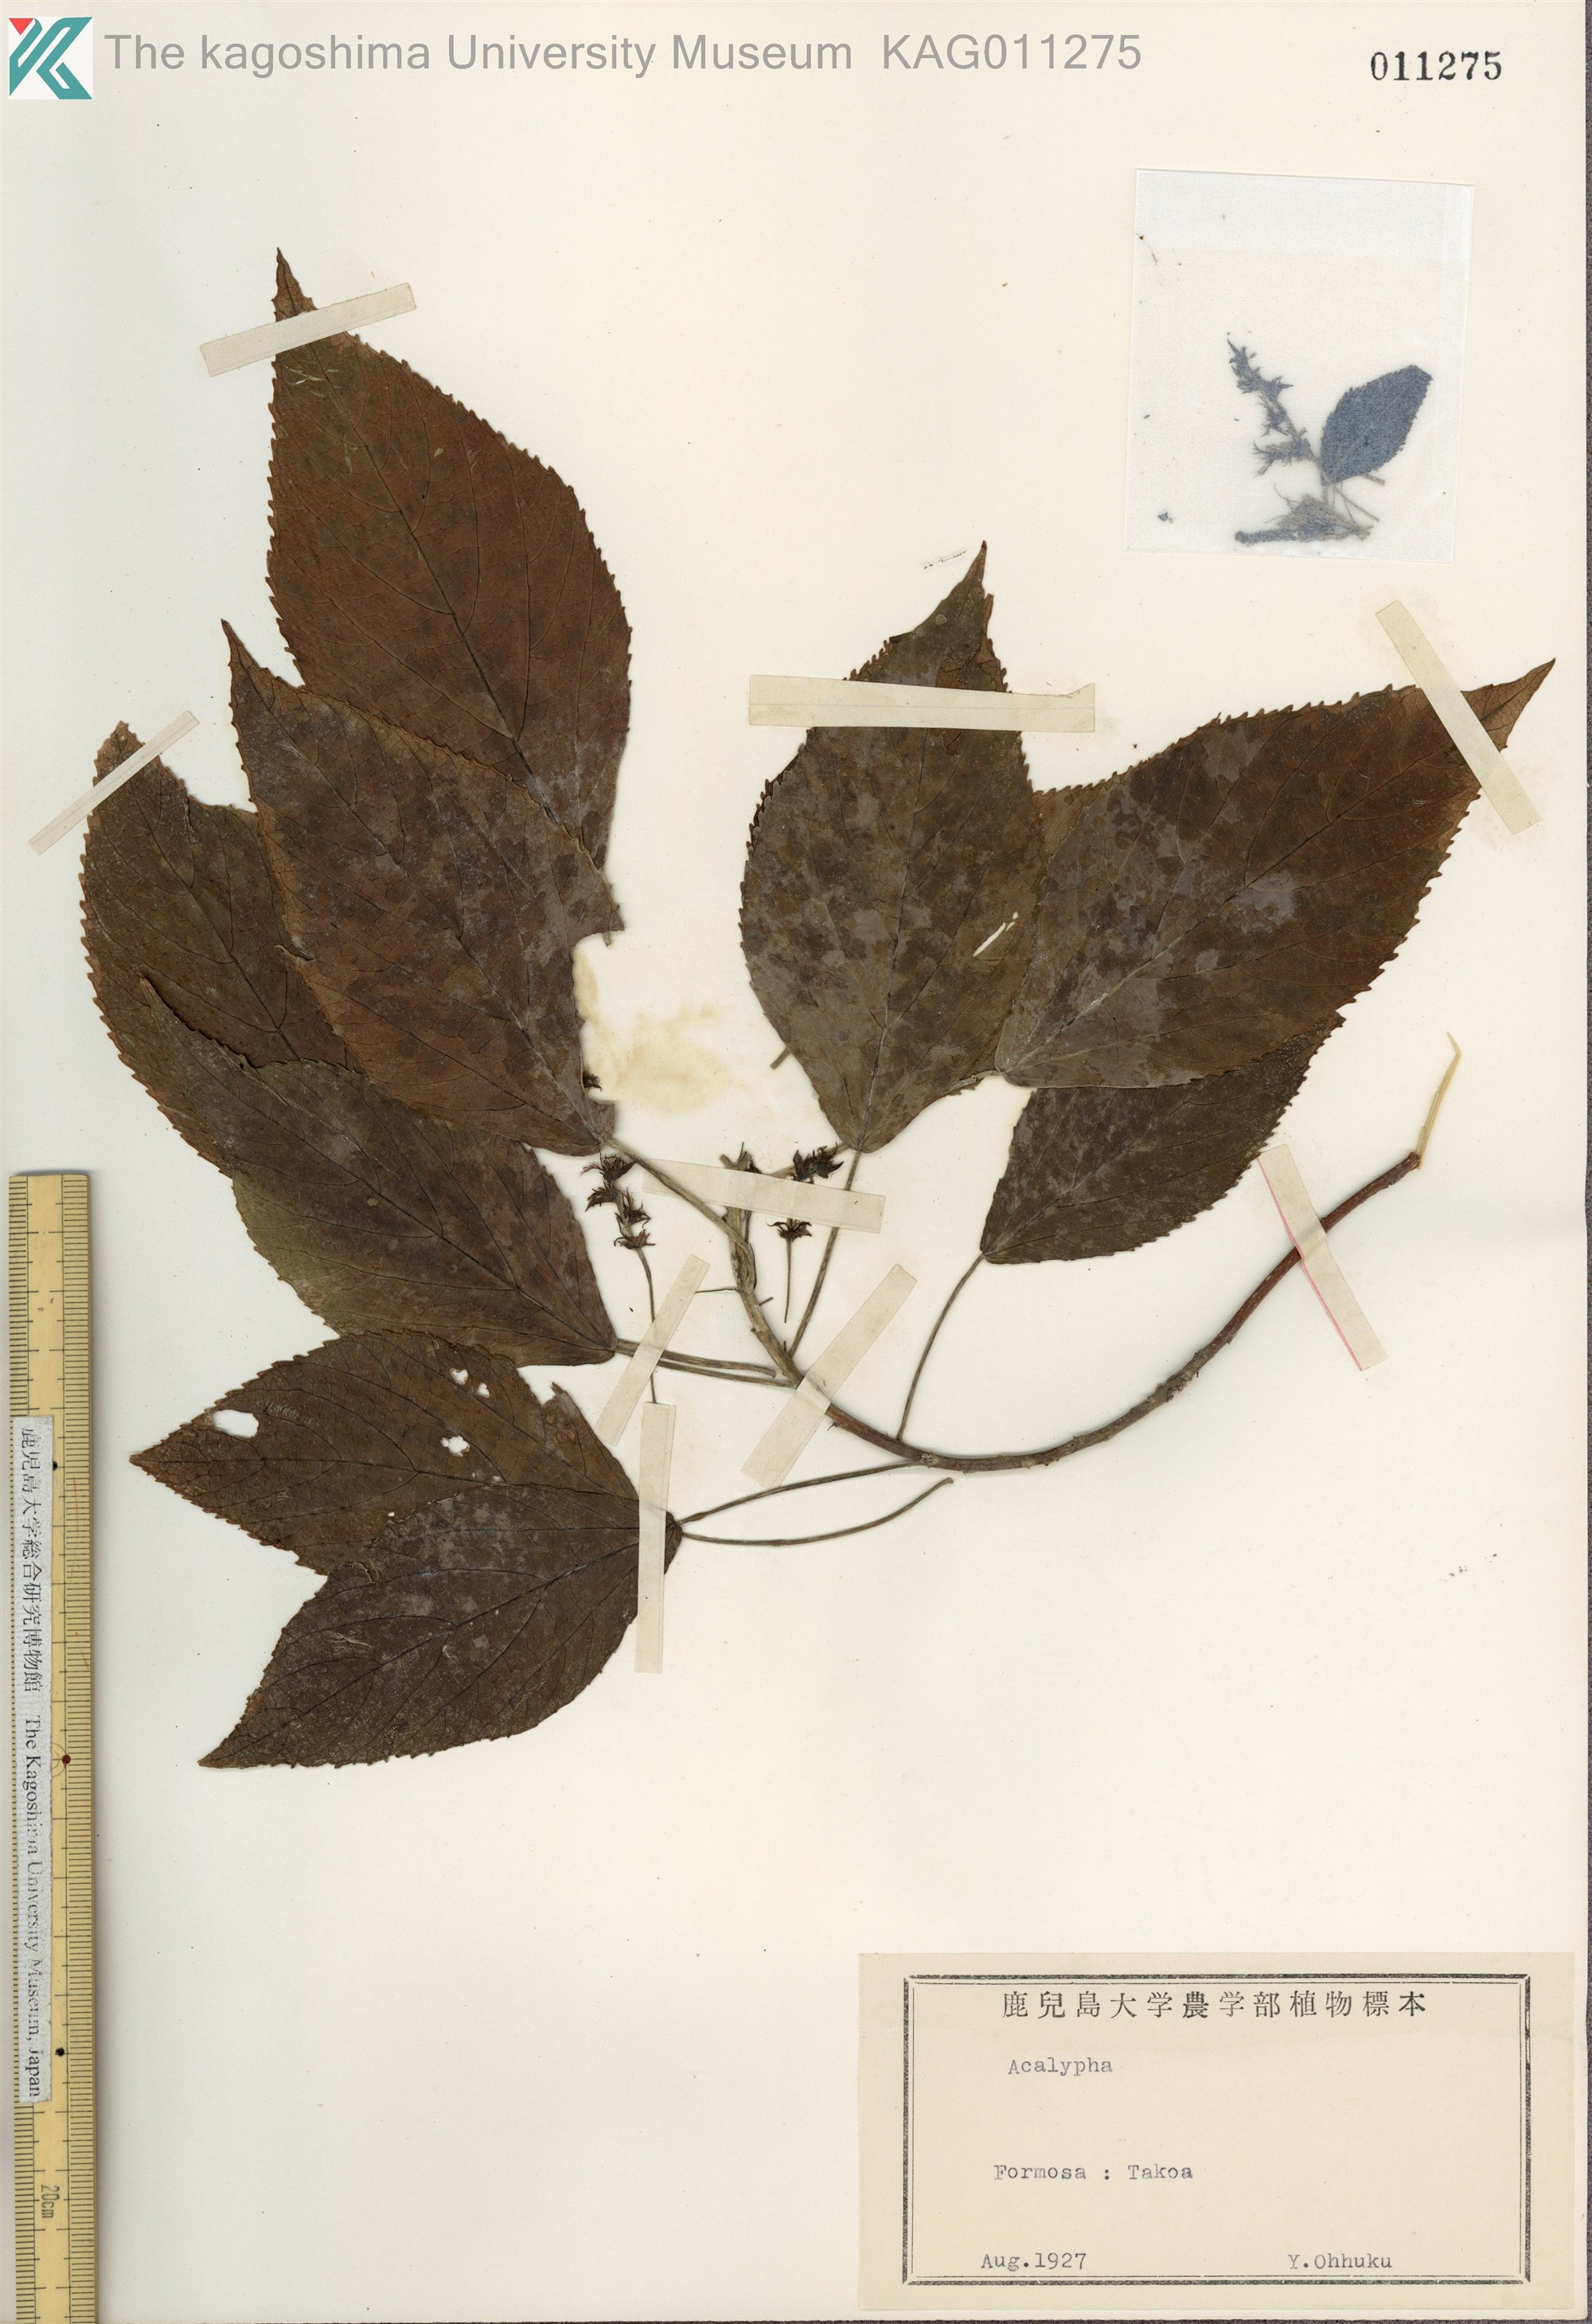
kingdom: Plantae
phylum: Tracheophyta
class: Magnoliopsida
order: Malpighiales
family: Euphorbiaceae
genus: Acalypha
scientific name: Acalypha wilkesiana
